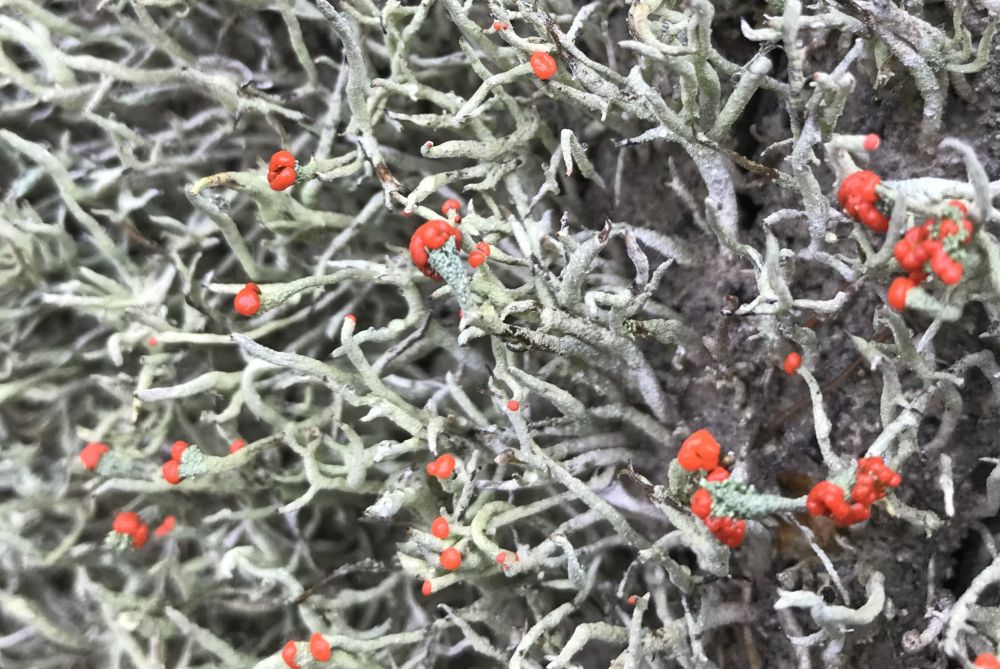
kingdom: Fungi
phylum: Ascomycota
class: Lecanoromycetes
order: Lecanorales
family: Cladoniaceae
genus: Cladonia
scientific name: Cladonia floerkeana
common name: lakrød bægerlav
